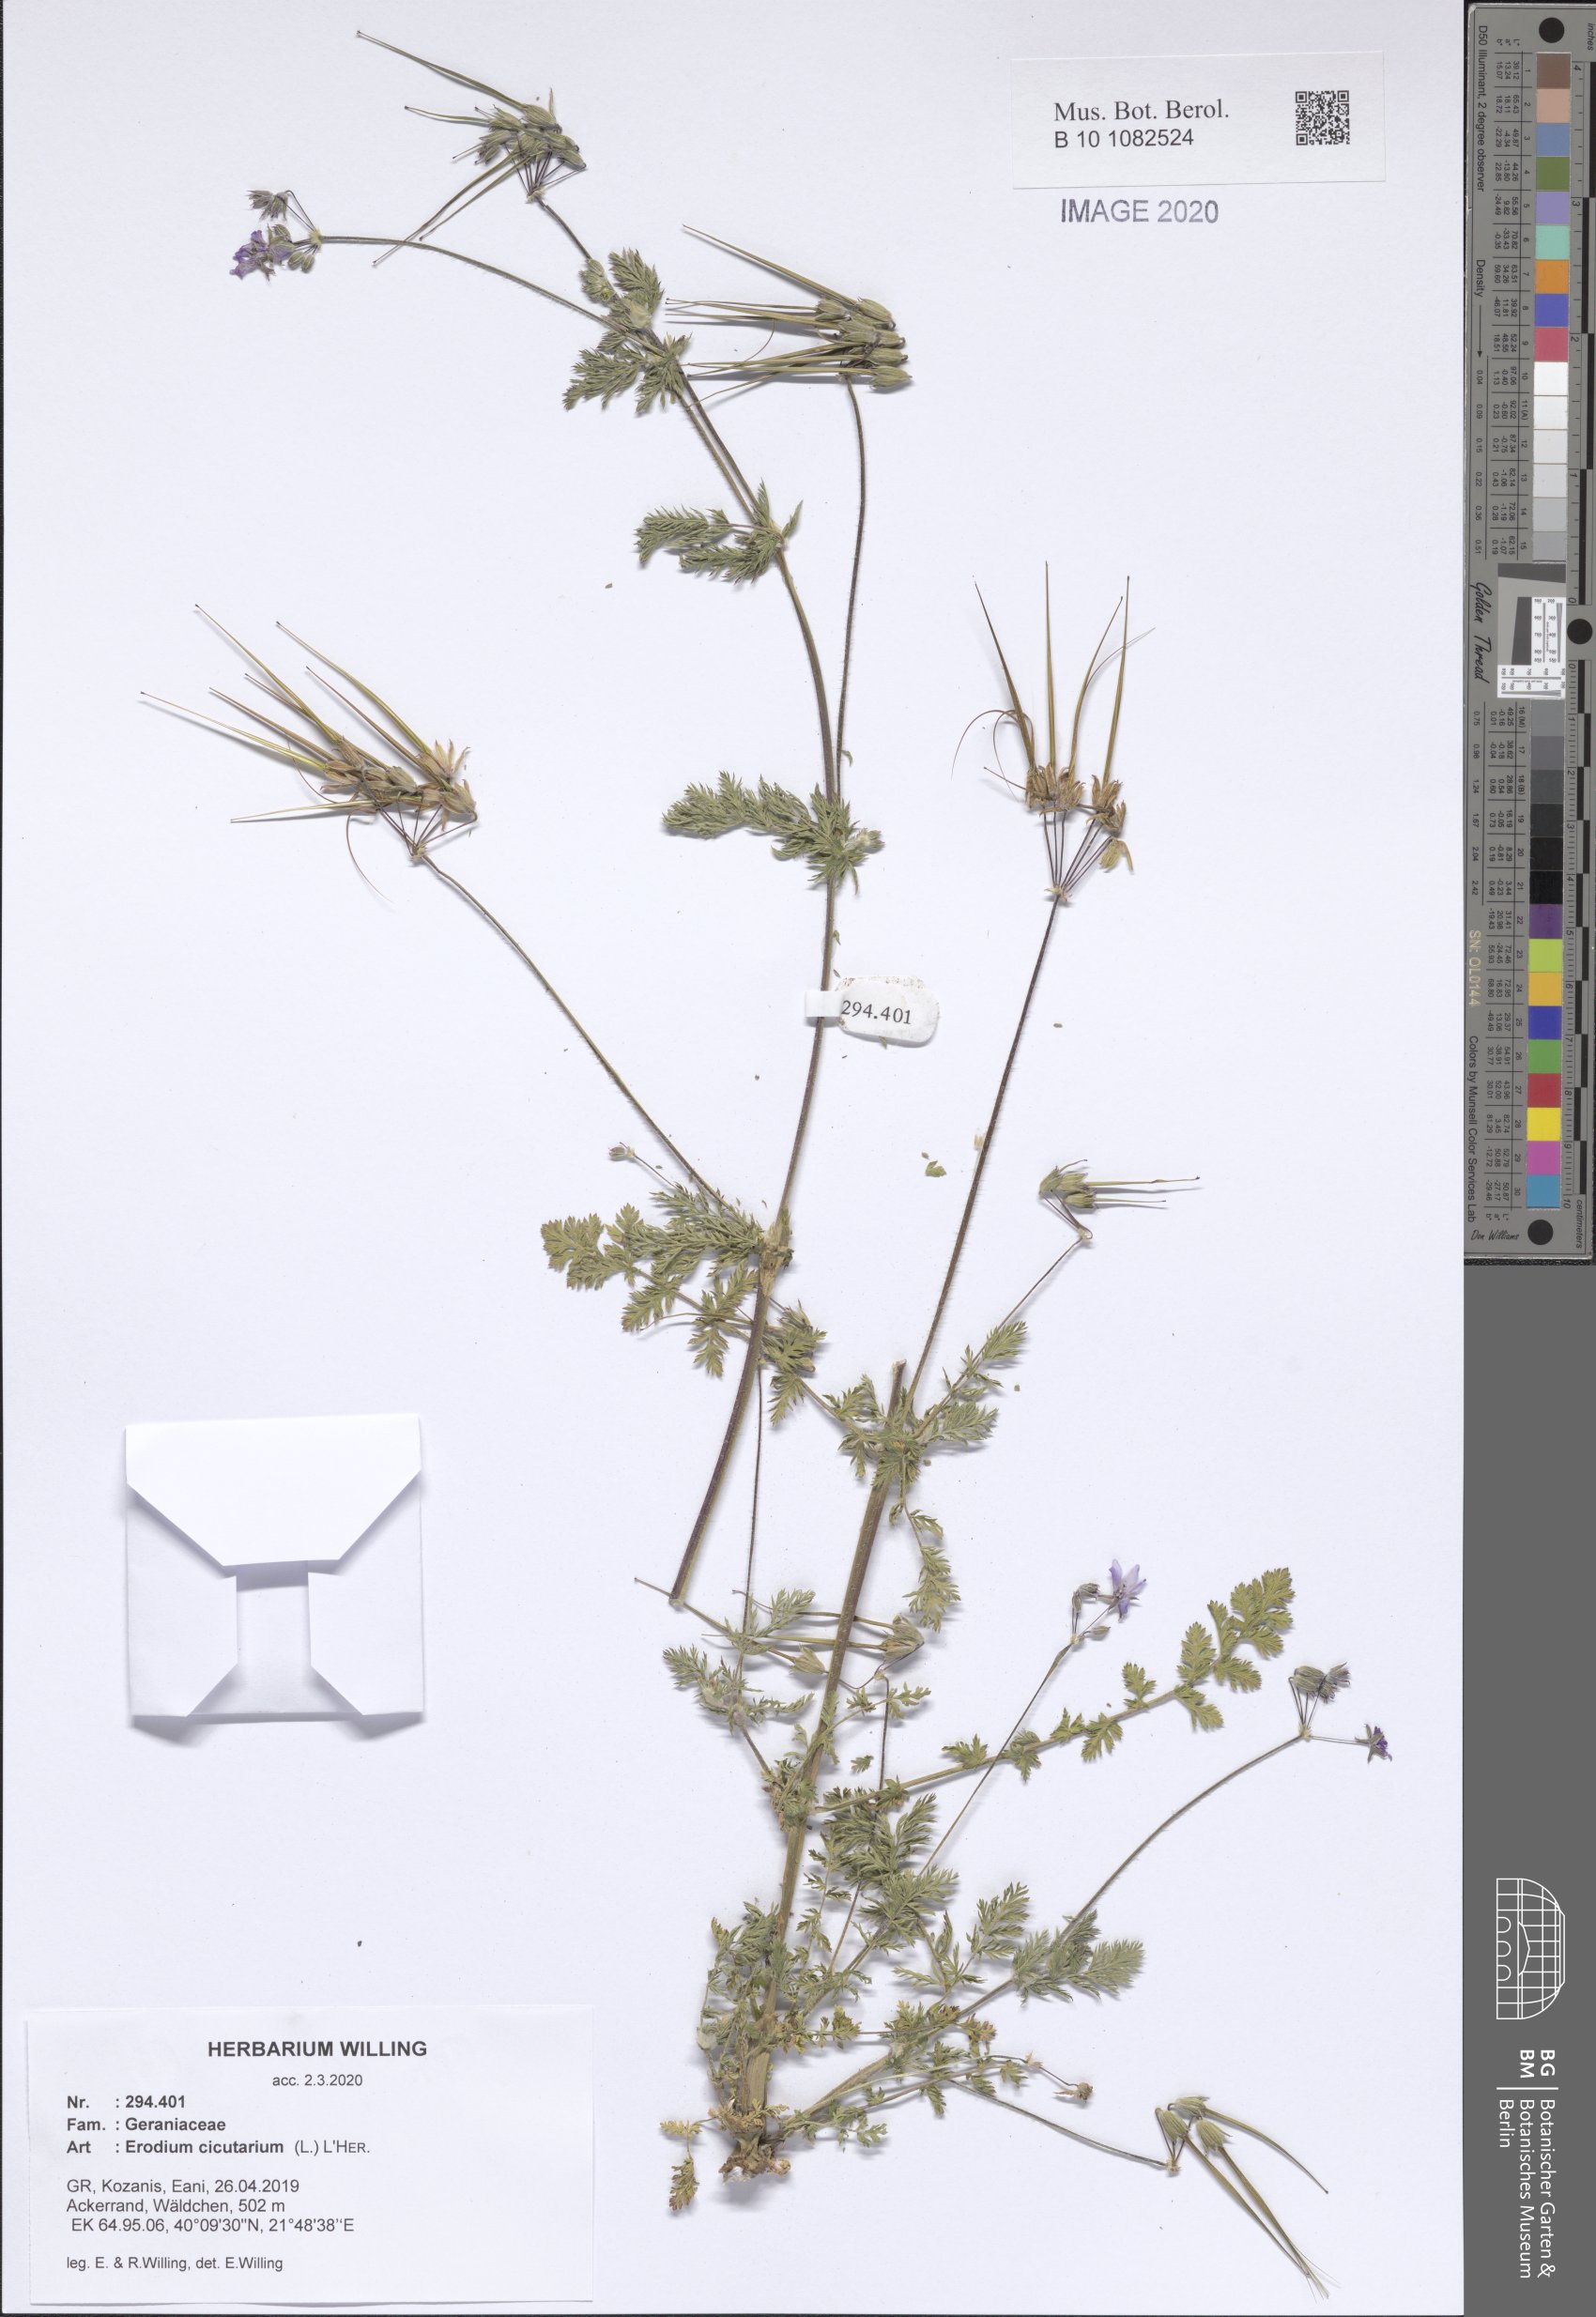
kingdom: Plantae
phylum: Tracheophyta
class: Magnoliopsida
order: Geraniales
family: Geraniaceae
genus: Erodium
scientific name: Erodium cicutarium
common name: Common stork's-bill
